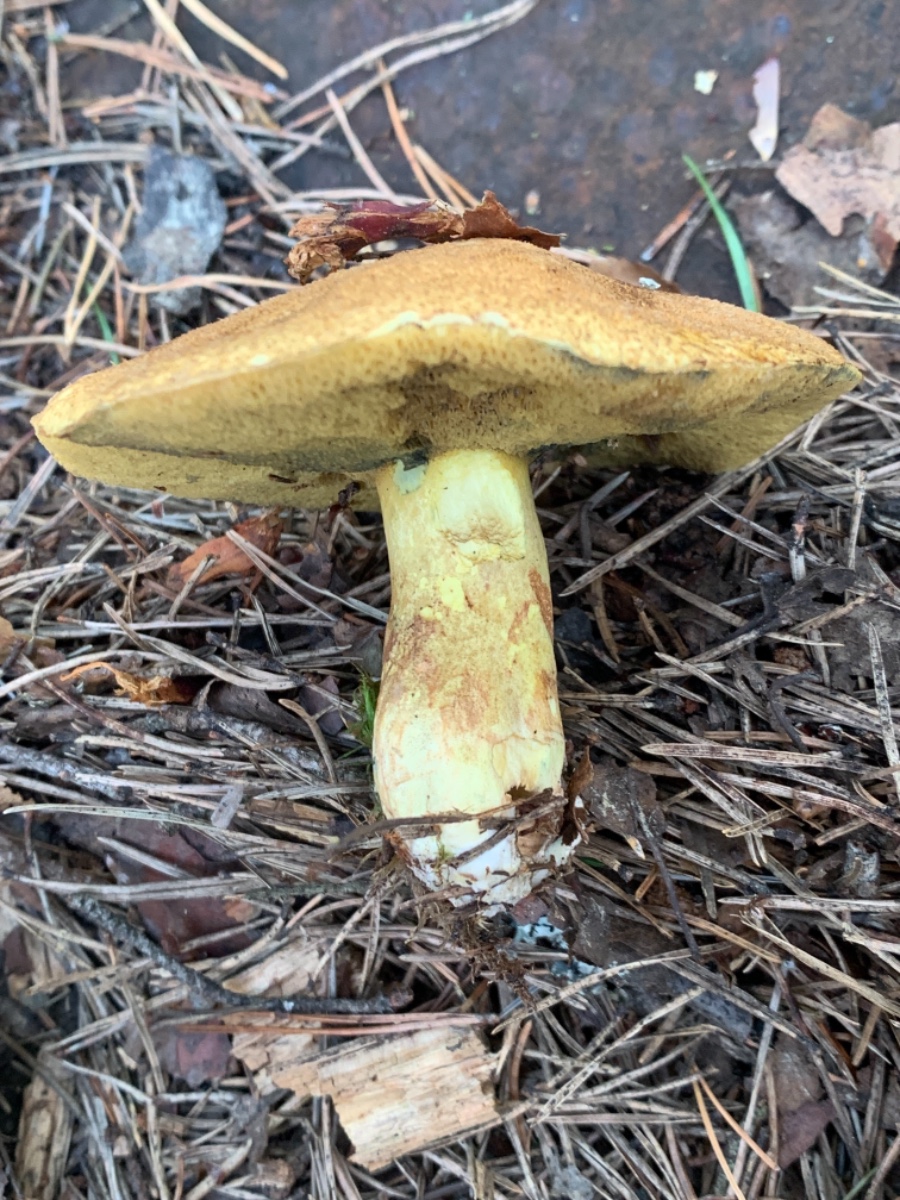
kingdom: Fungi
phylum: Basidiomycota
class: Agaricomycetes
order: Boletales
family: Suillaceae
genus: Suillus
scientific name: Suillus variegatus
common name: broget slimrørhat
